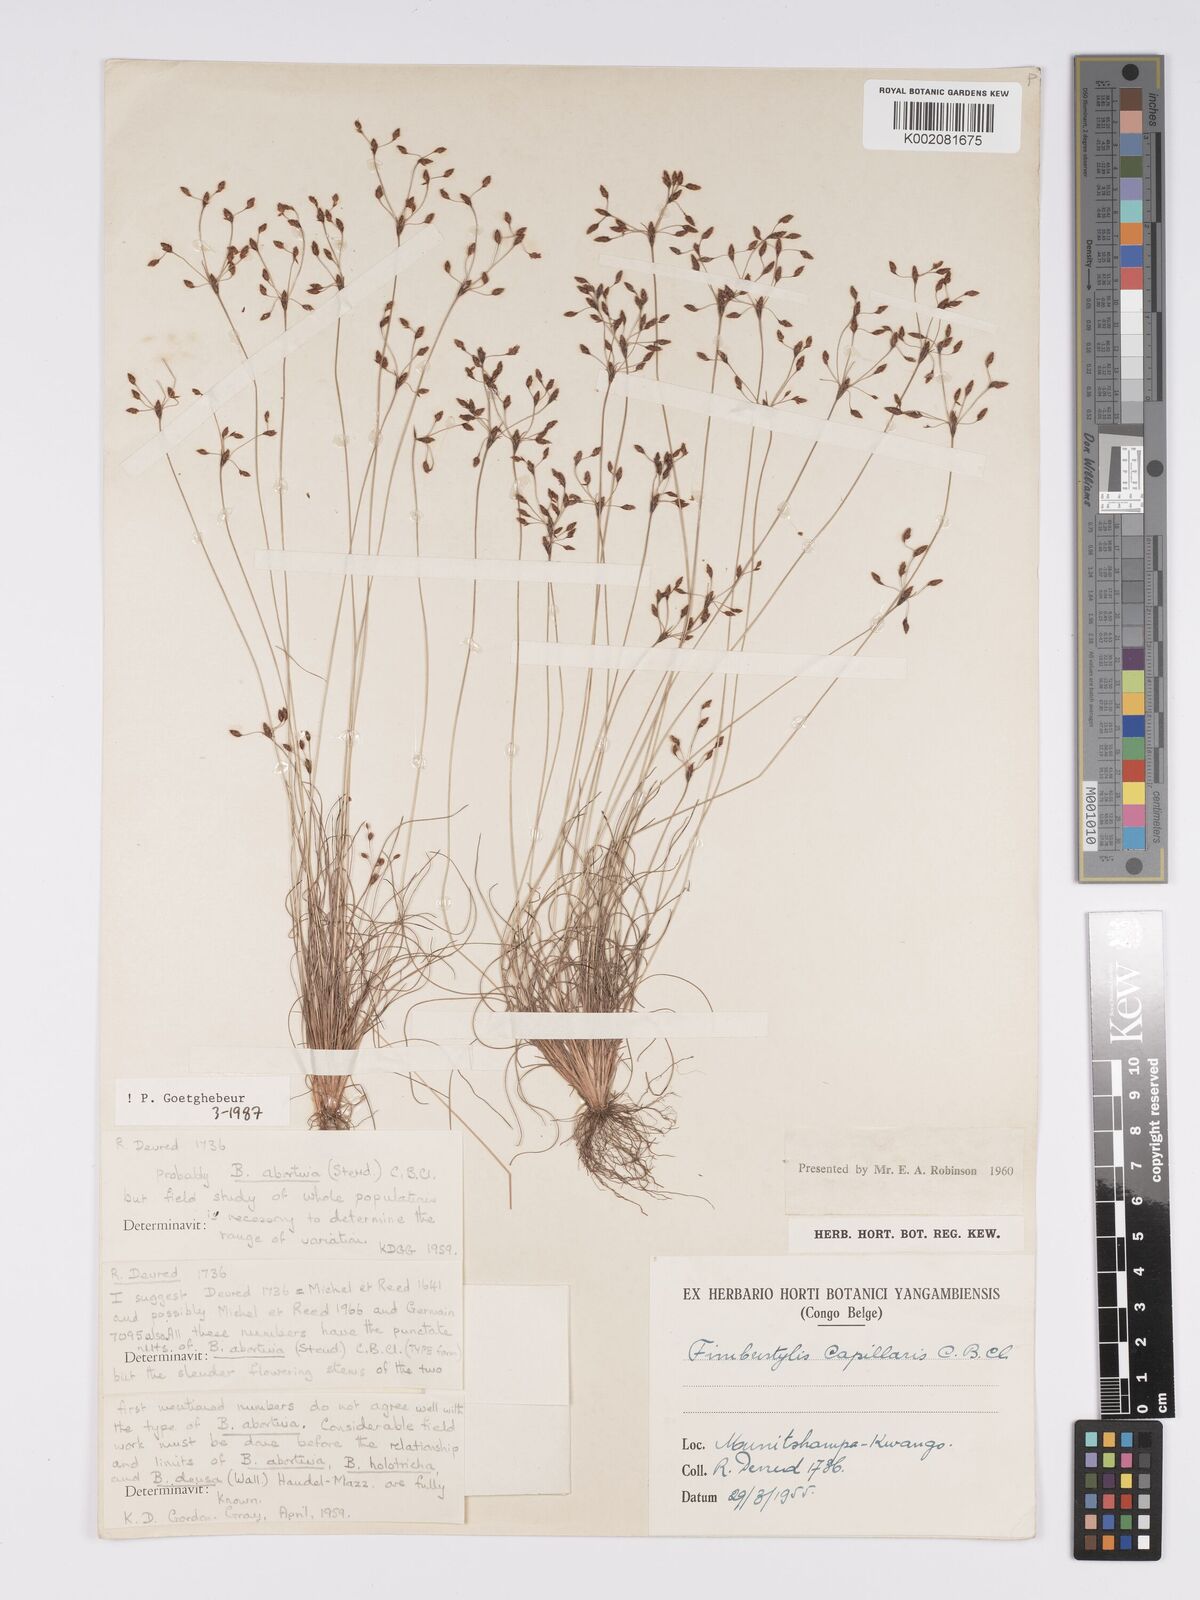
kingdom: Plantae
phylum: Tracheophyta
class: Liliopsida
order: Poales
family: Cyperaceae
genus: Bulbostylis
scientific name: Bulbostylis abortiva
